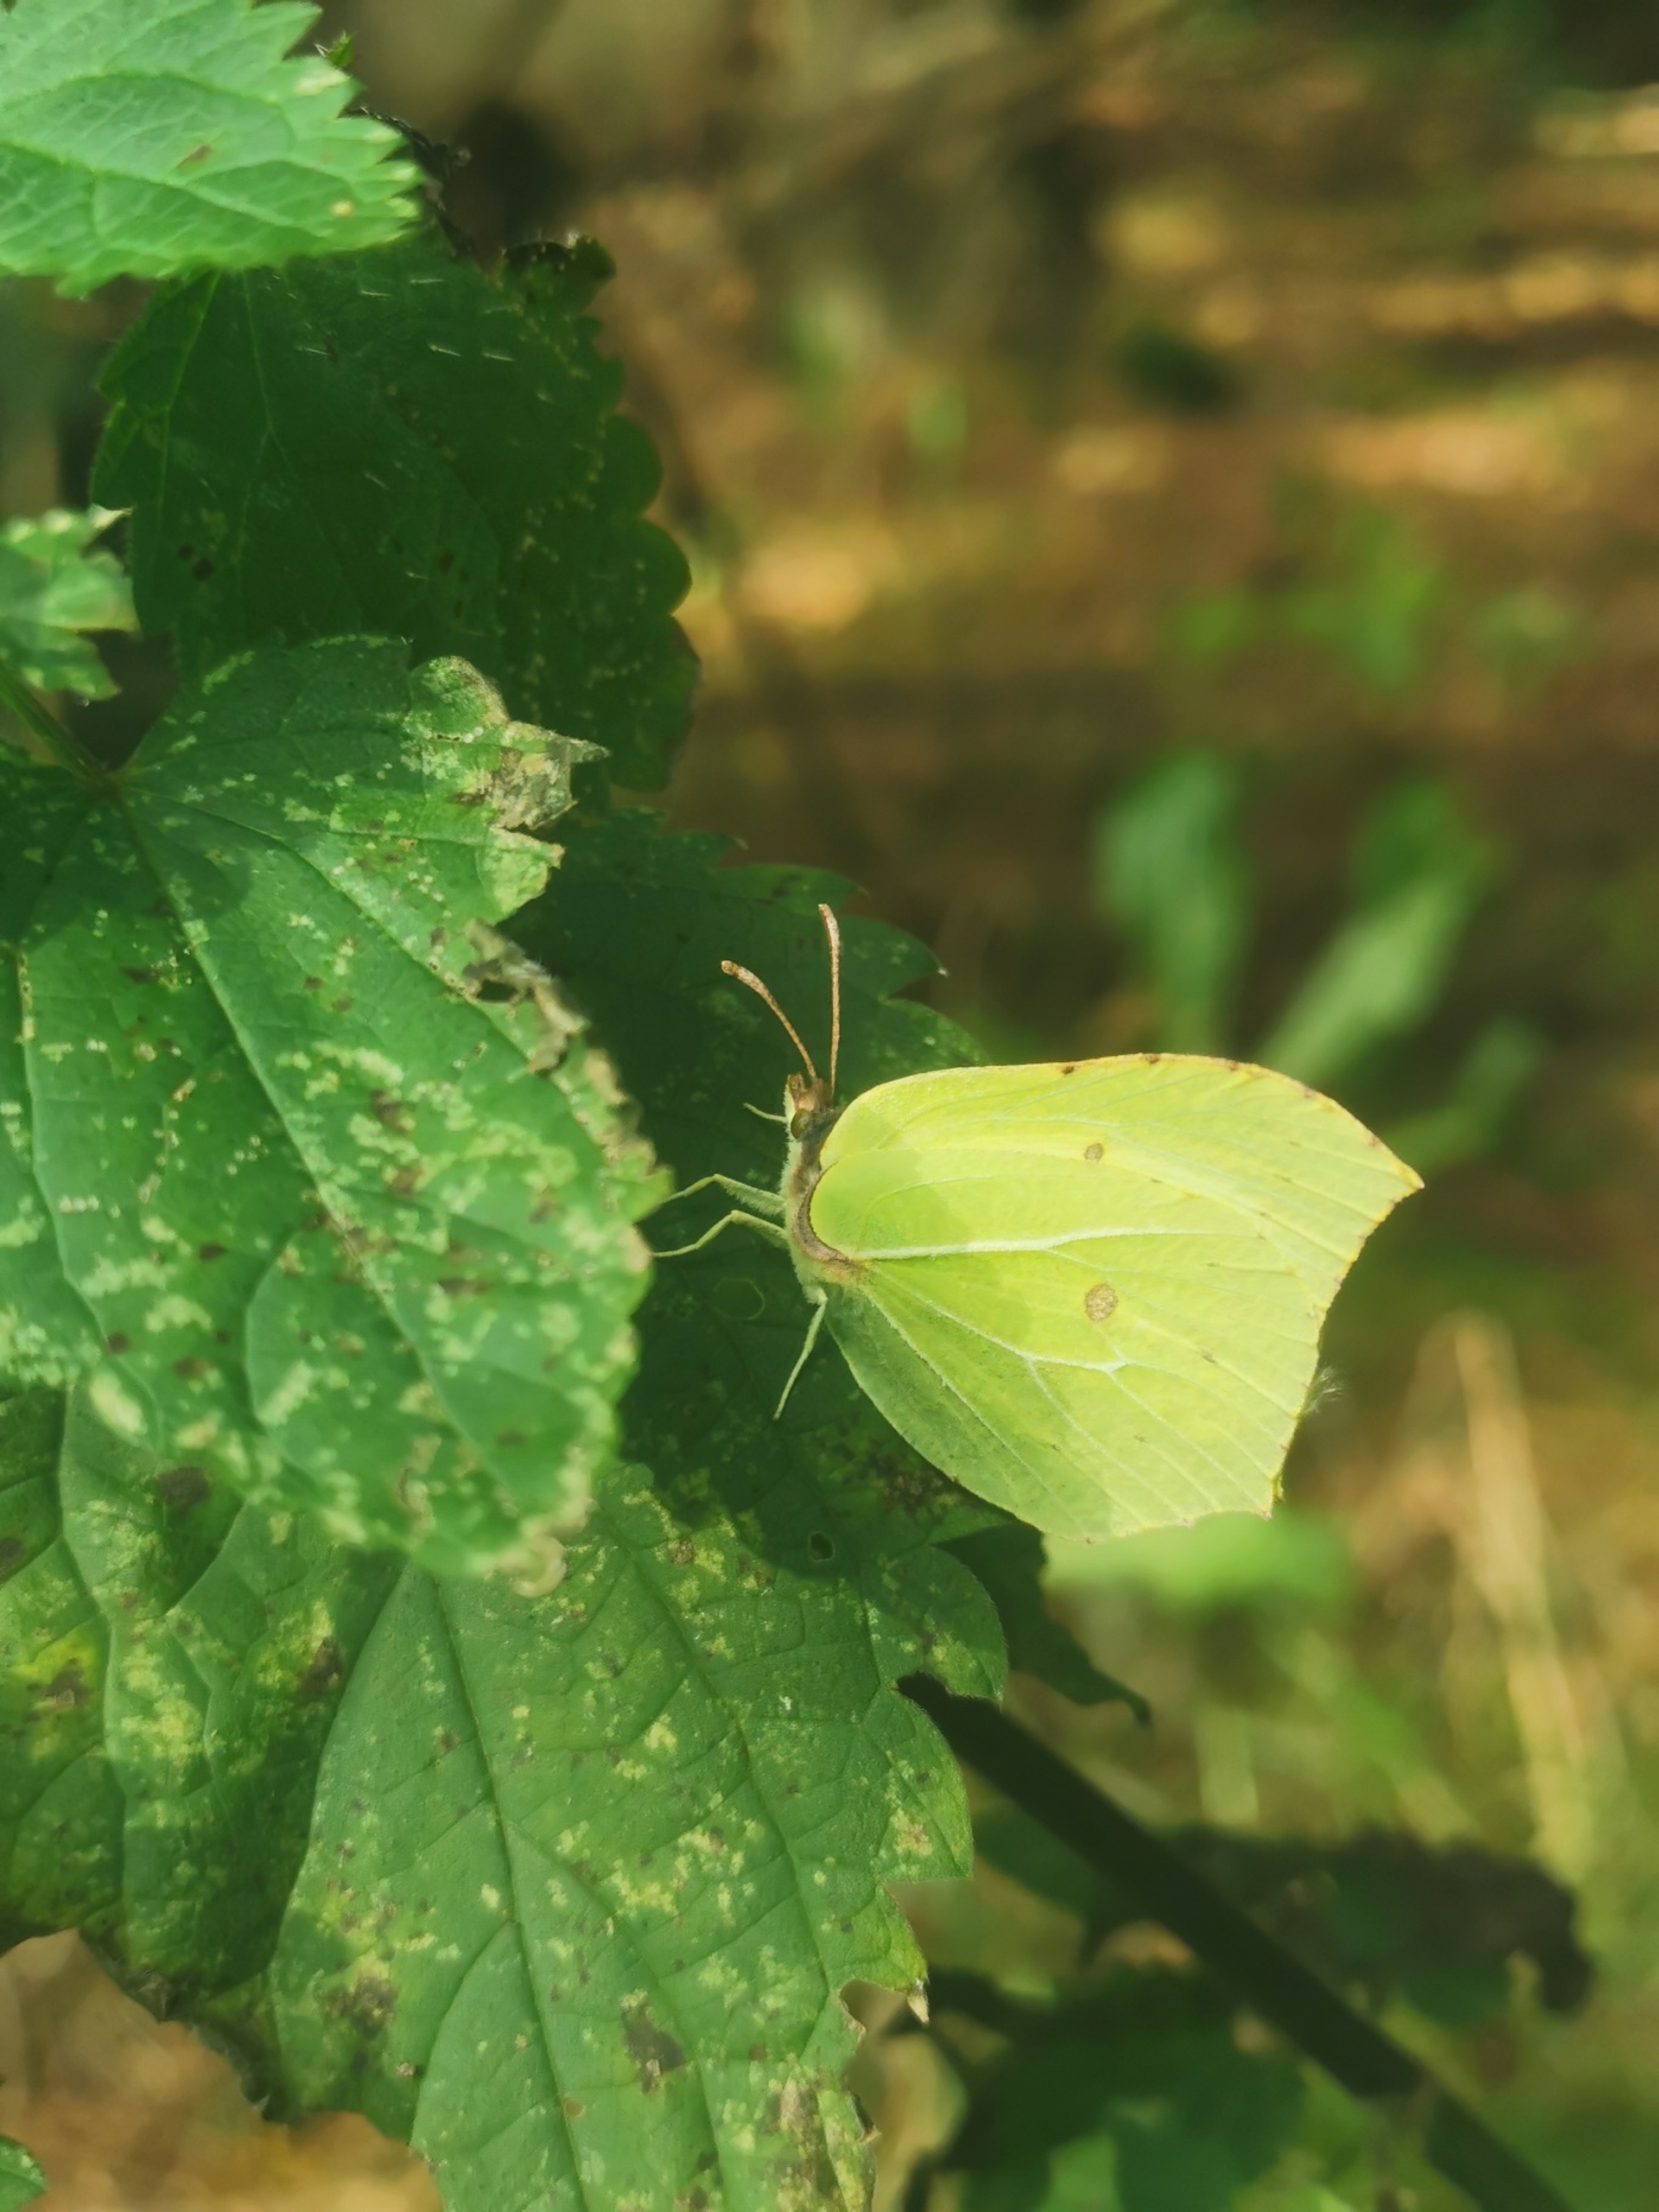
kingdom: Animalia
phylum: Arthropoda
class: Insecta
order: Lepidoptera
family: Pieridae
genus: Gonepteryx
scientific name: Gonepteryx rhamni
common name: Citronsommerfugl
